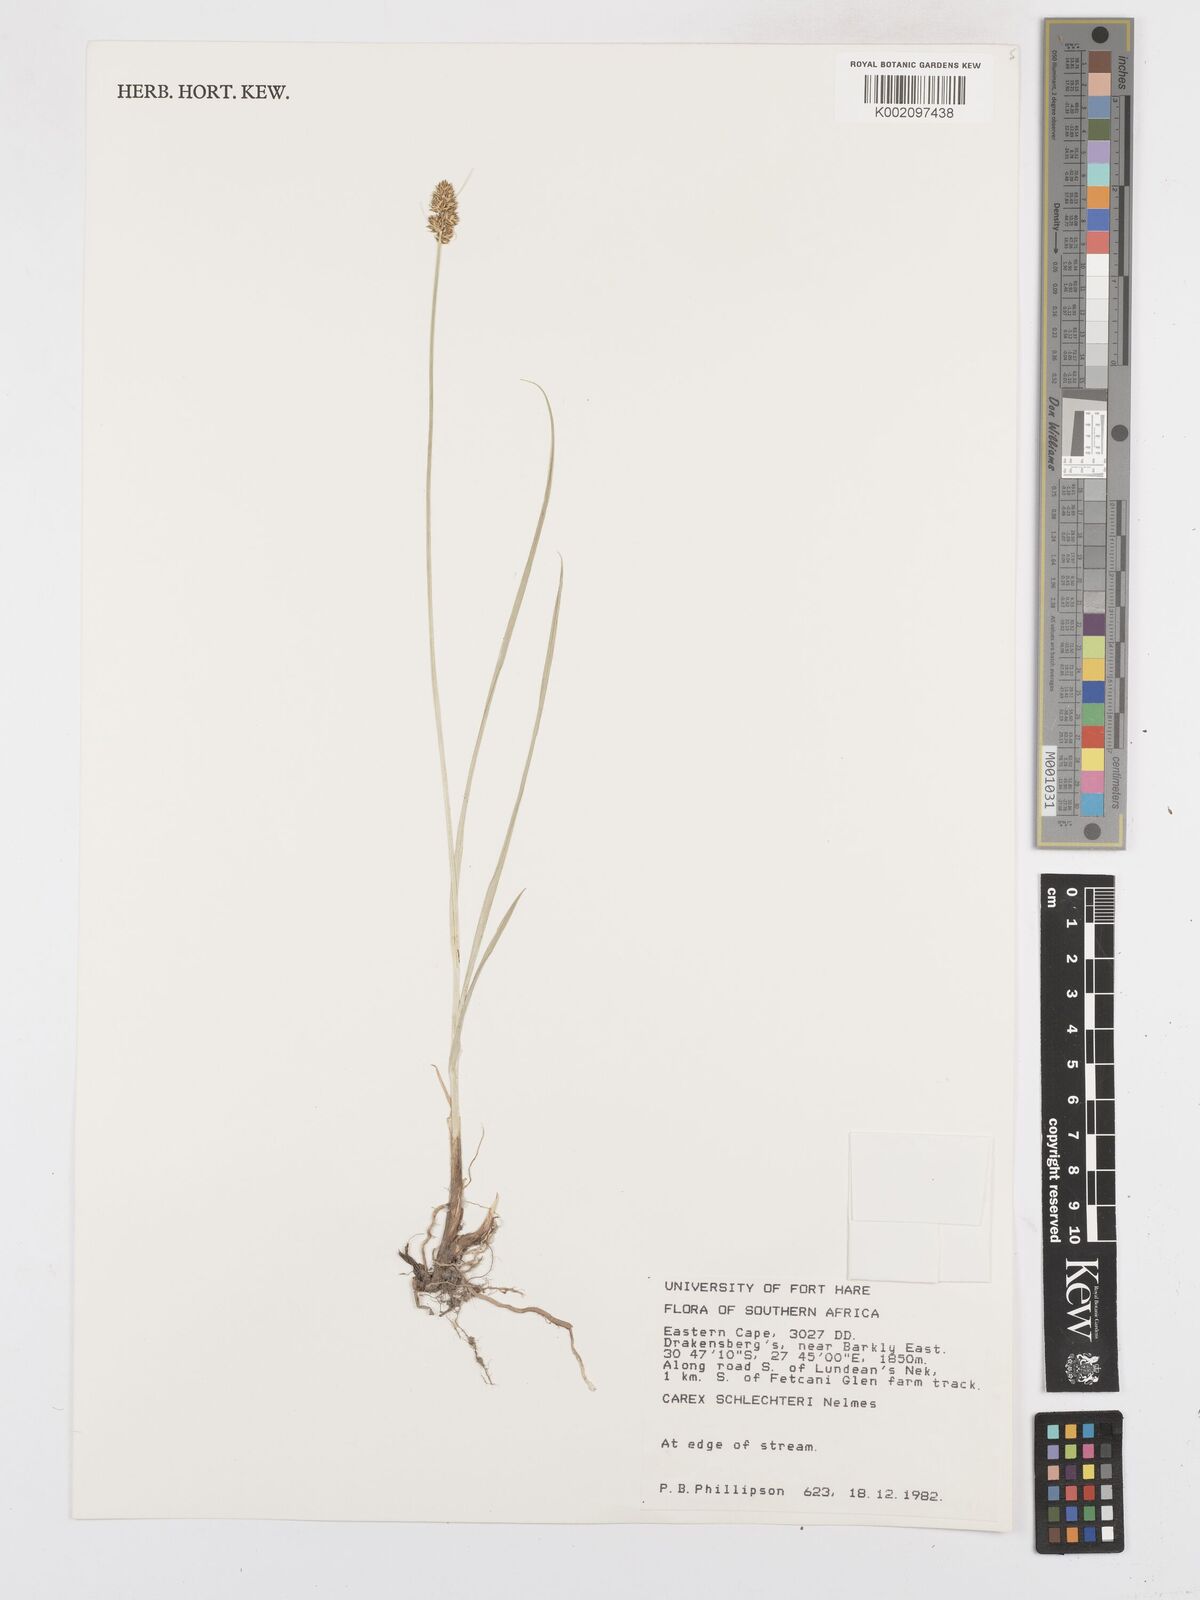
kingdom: Plantae
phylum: Tracheophyta
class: Liliopsida
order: Poales
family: Cyperaceae
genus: Carex
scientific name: Carex glomerata
